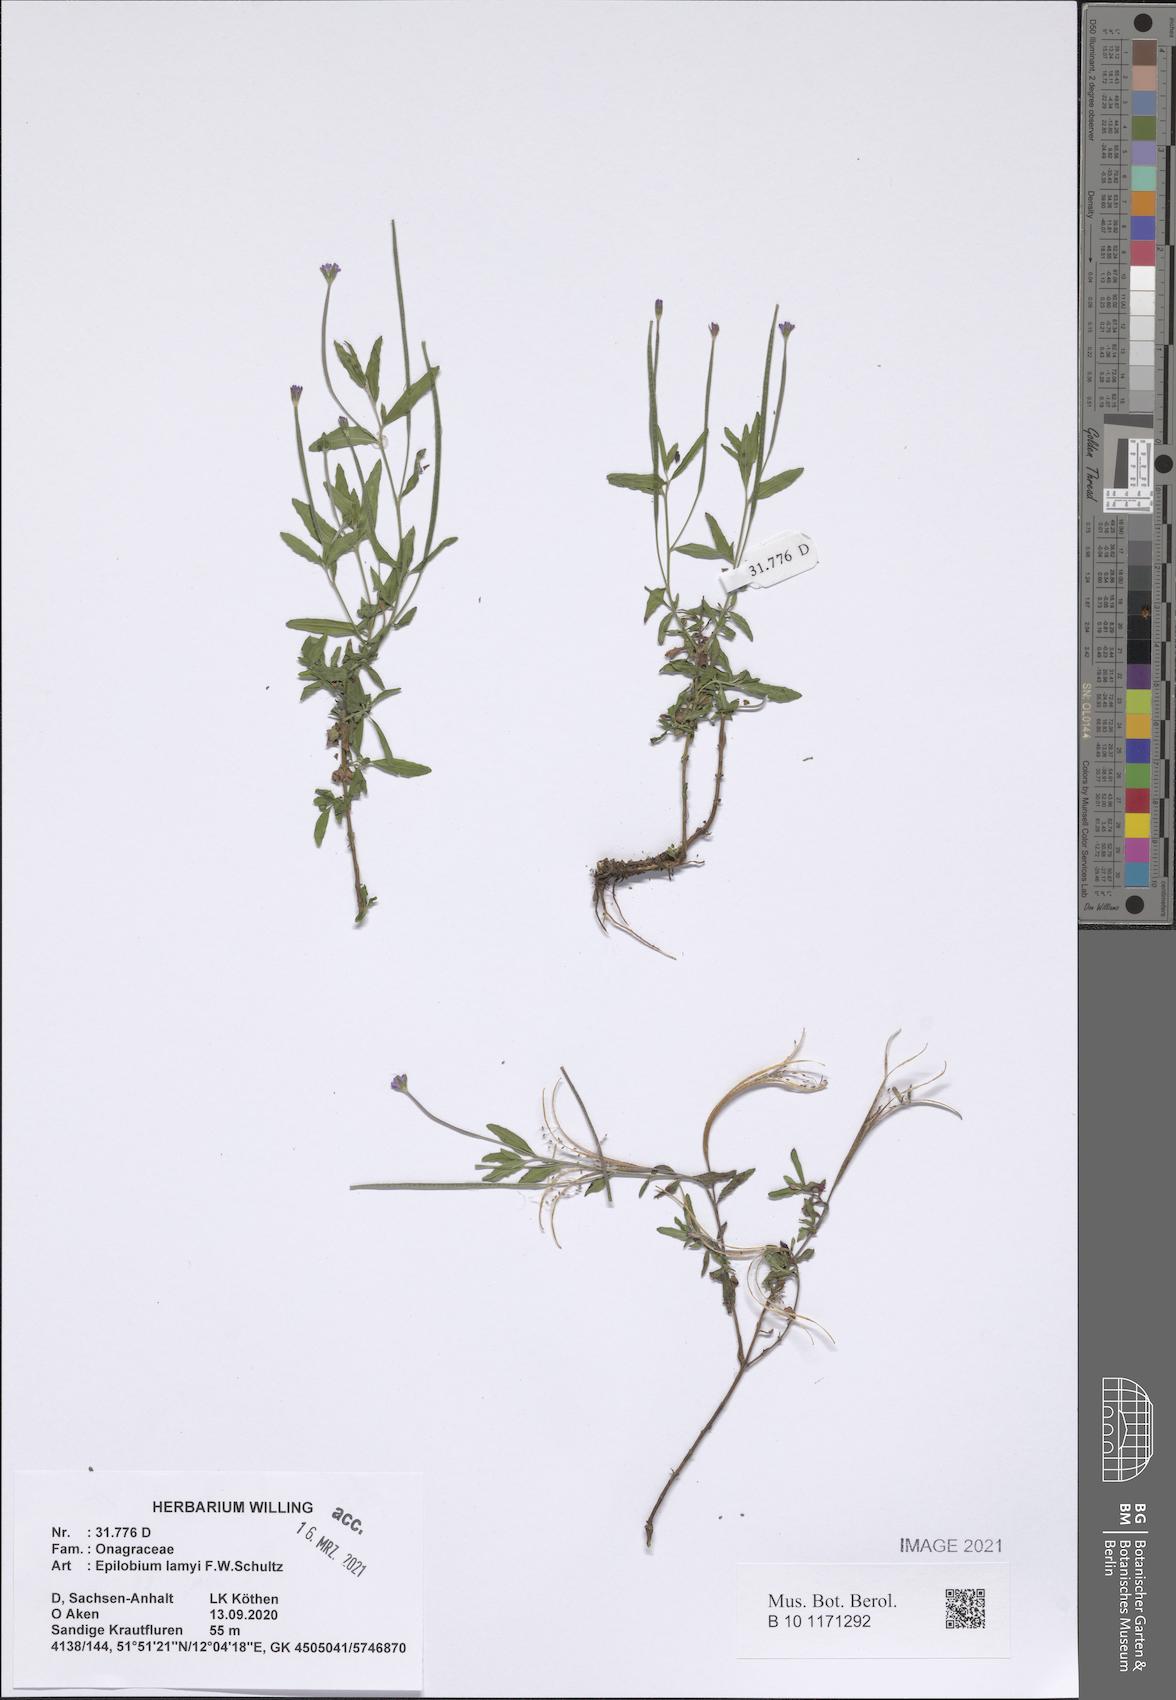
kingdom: Plantae
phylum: Tracheophyta
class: Magnoliopsida
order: Myrtales
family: Onagraceae
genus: Epilobium
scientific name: Epilobium lamyi
